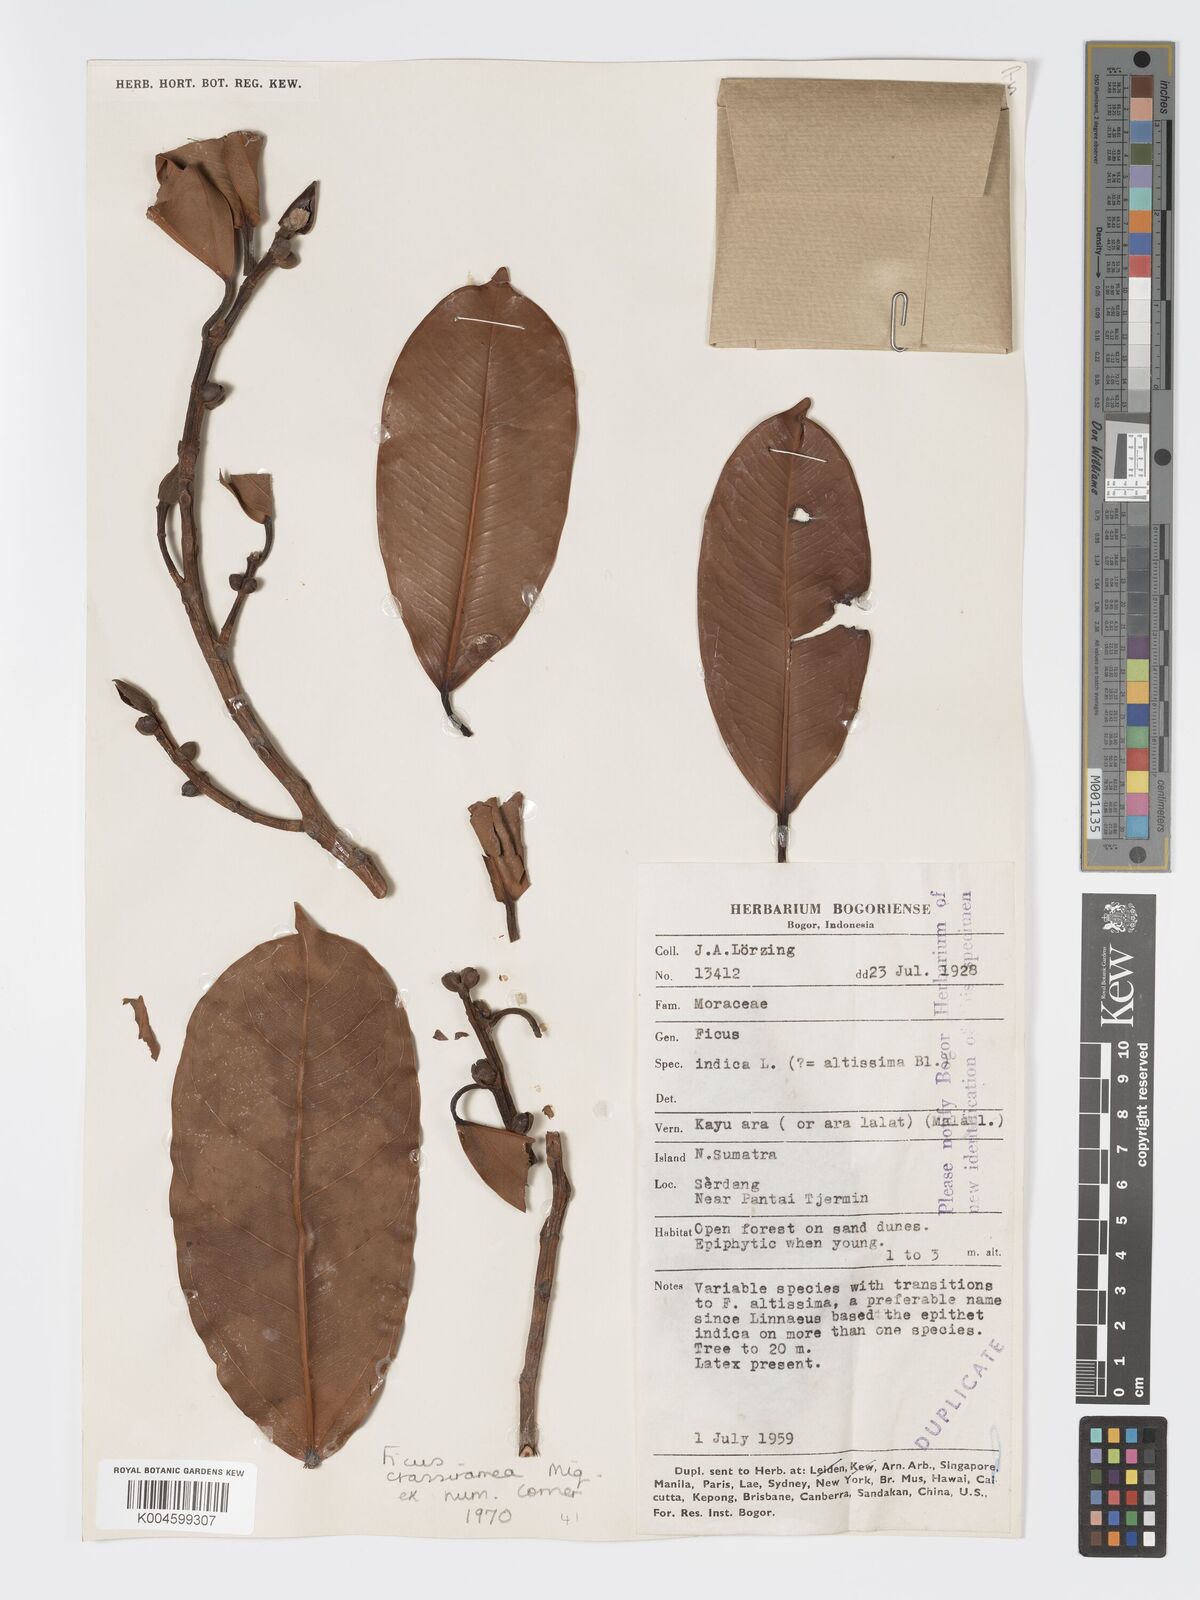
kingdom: Plantae
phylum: Tracheophyta
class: Magnoliopsida
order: Rosales
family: Moraceae
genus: Ficus
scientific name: Ficus crassiramea
